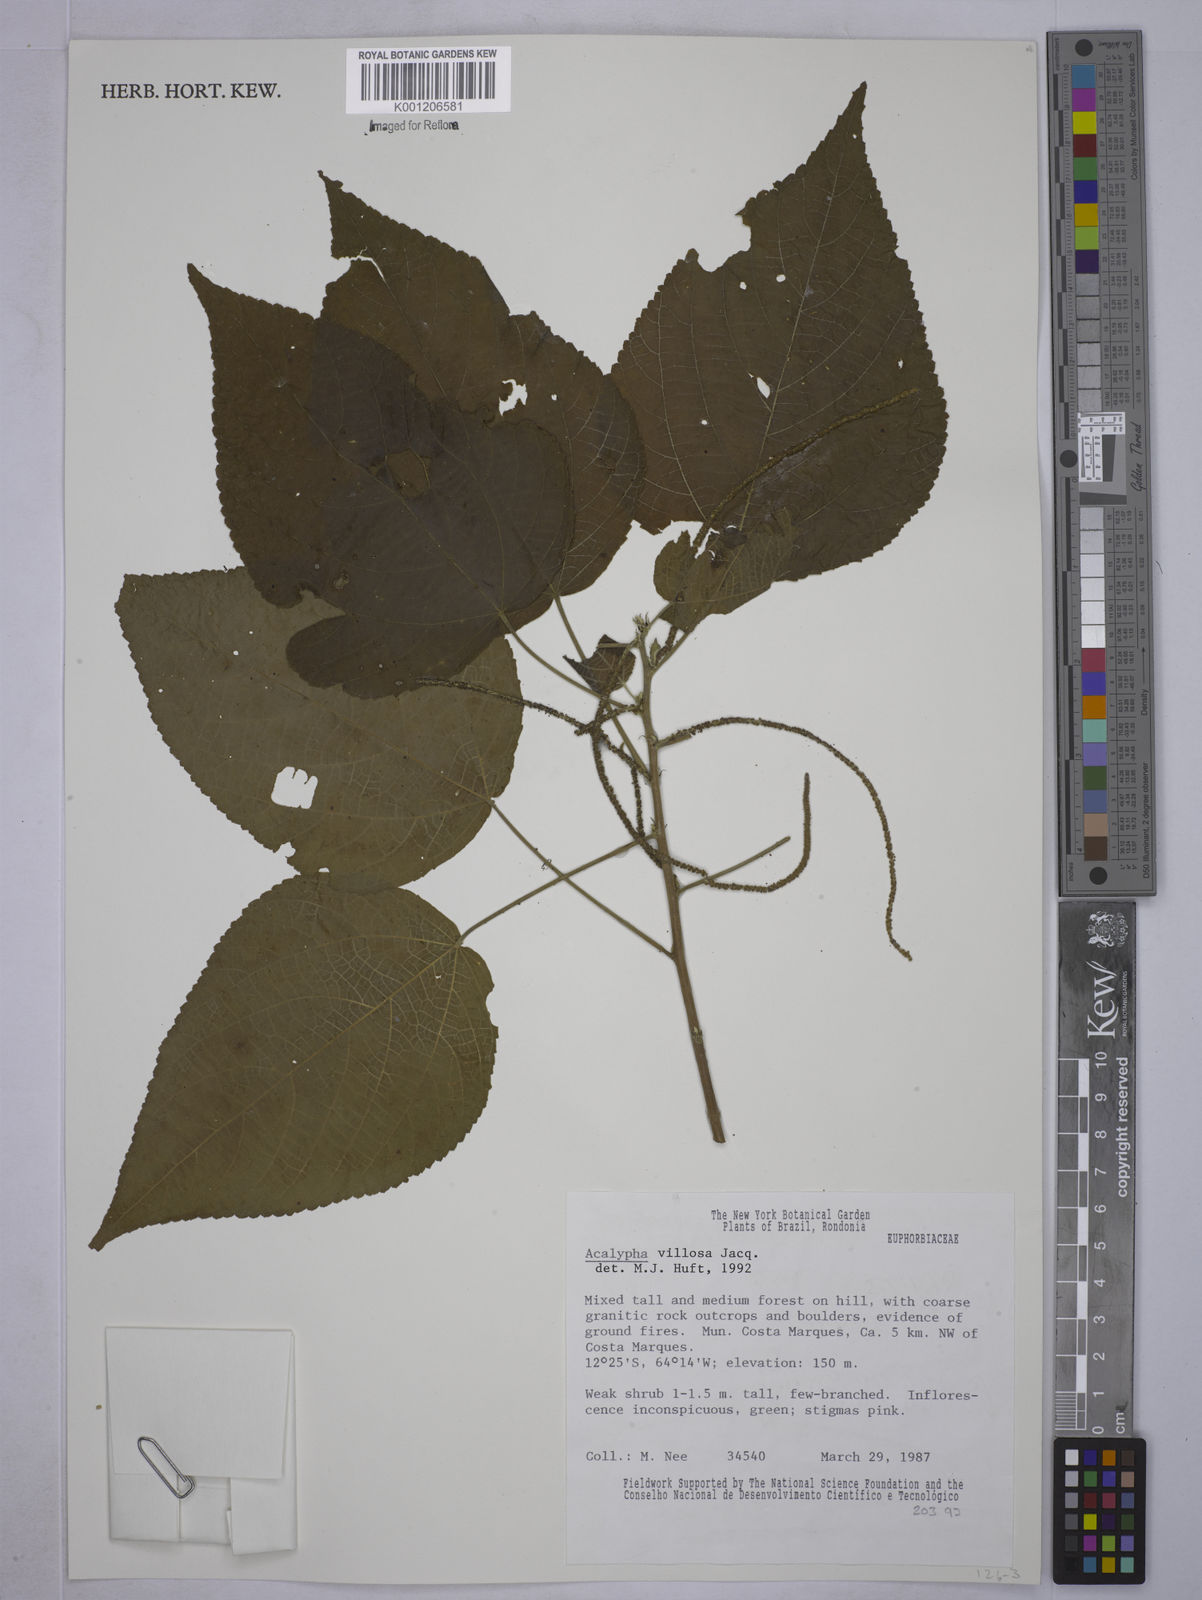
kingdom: Plantae
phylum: Tracheophyta
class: Magnoliopsida
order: Malpighiales
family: Euphorbiaceae
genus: Acalypha
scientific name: Acalypha villosa
